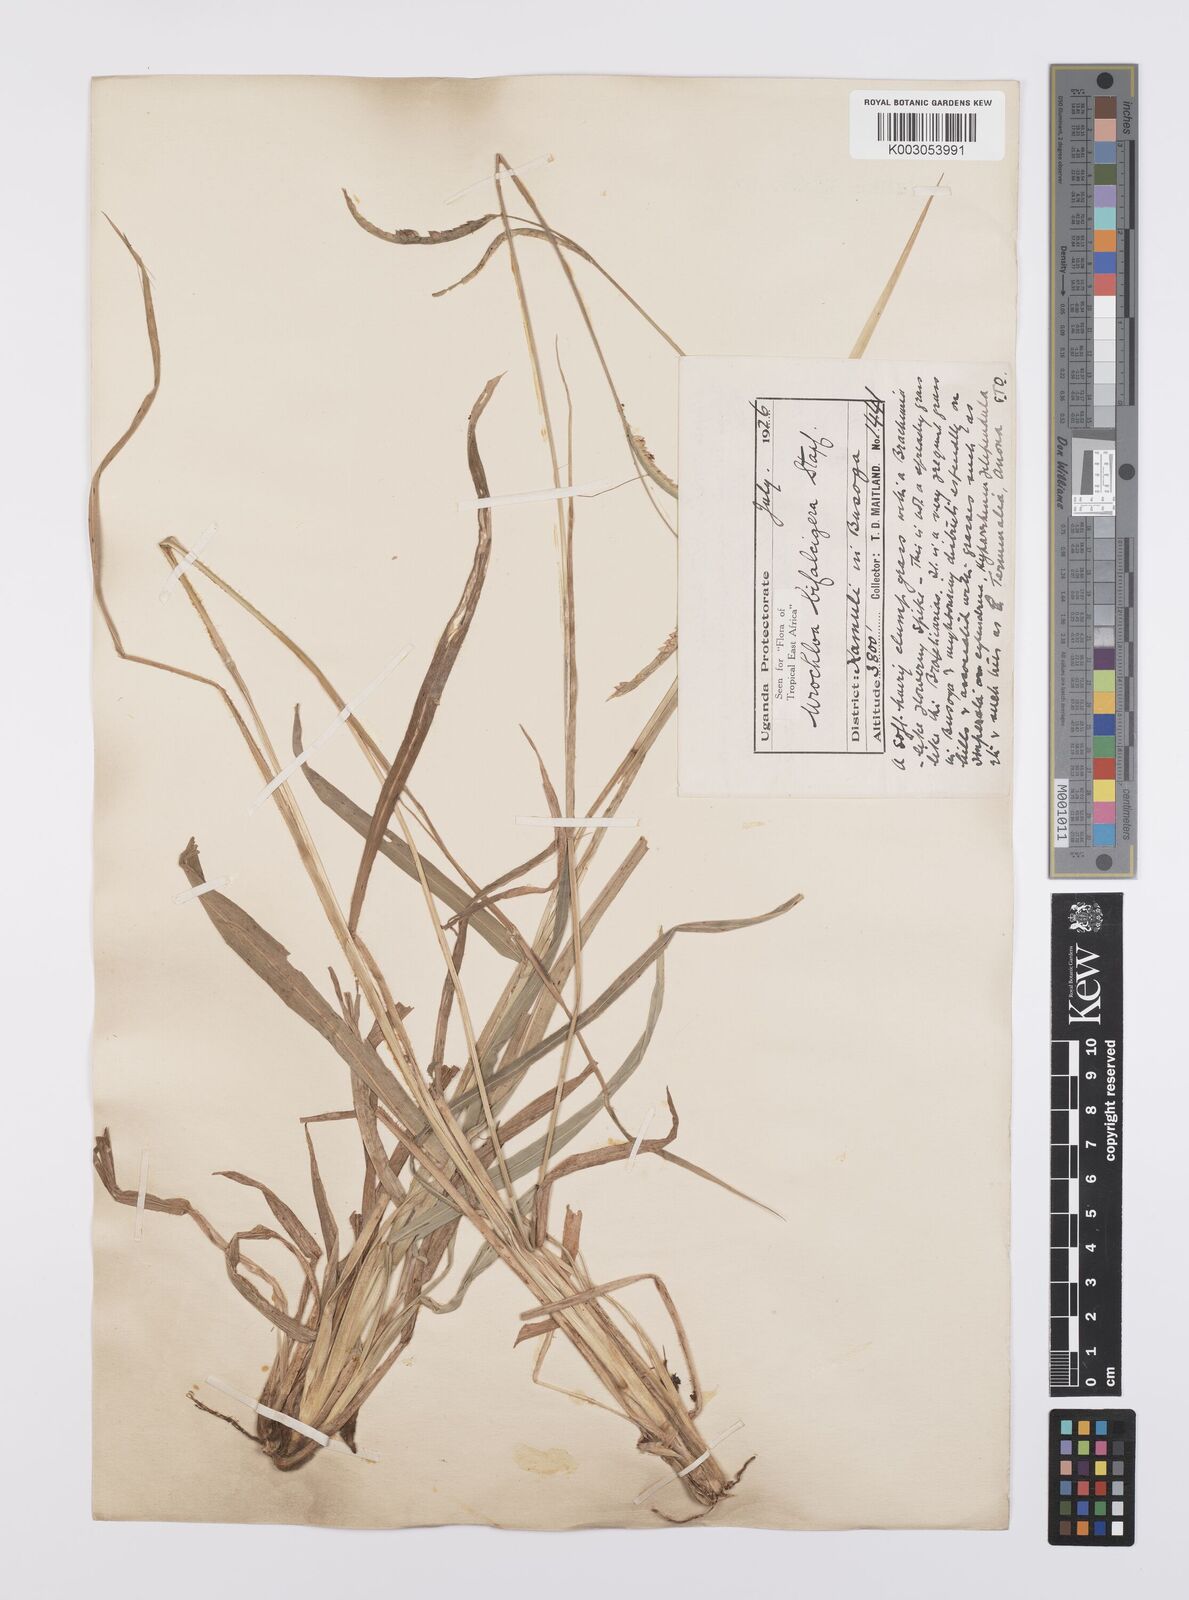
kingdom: Plantae
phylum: Tracheophyta
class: Liliopsida
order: Poales
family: Poaceae
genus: Urochloa
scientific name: Urochloa platynota
